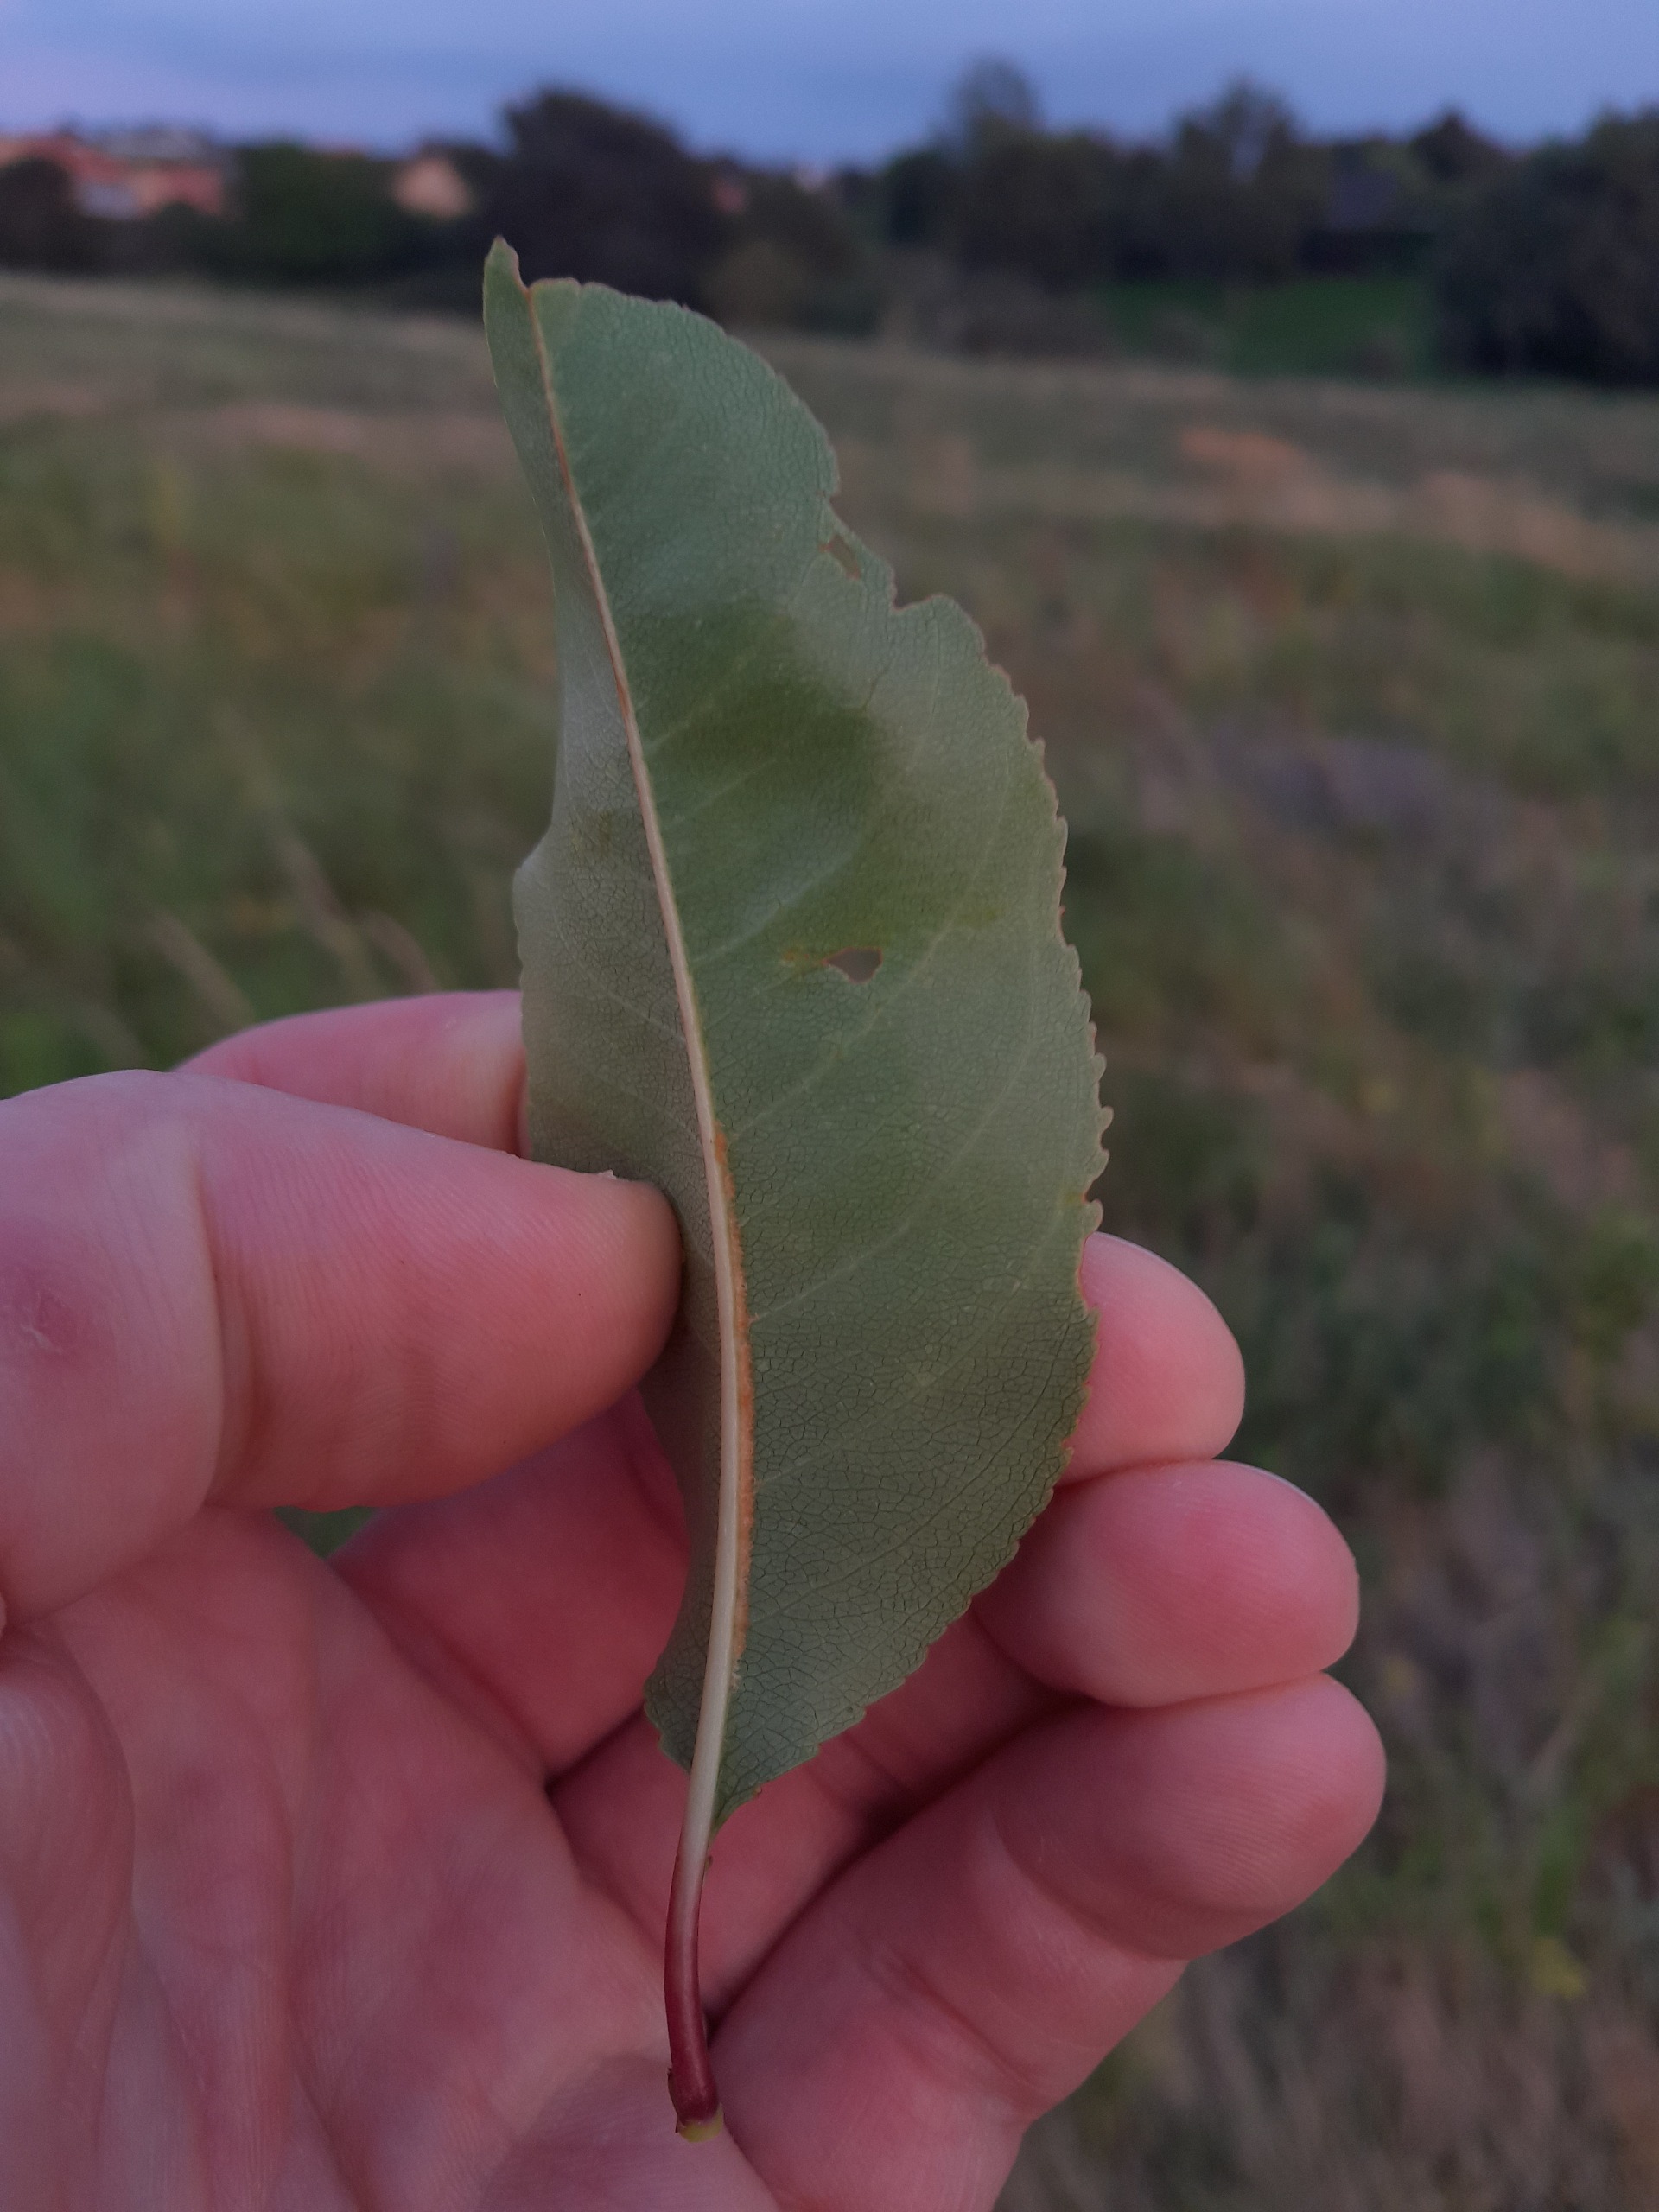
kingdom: Plantae
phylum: Tracheophyta
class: Magnoliopsida
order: Rosales
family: Rosaceae
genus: Prunus
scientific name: Prunus serotina
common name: Glansbladet hæg
